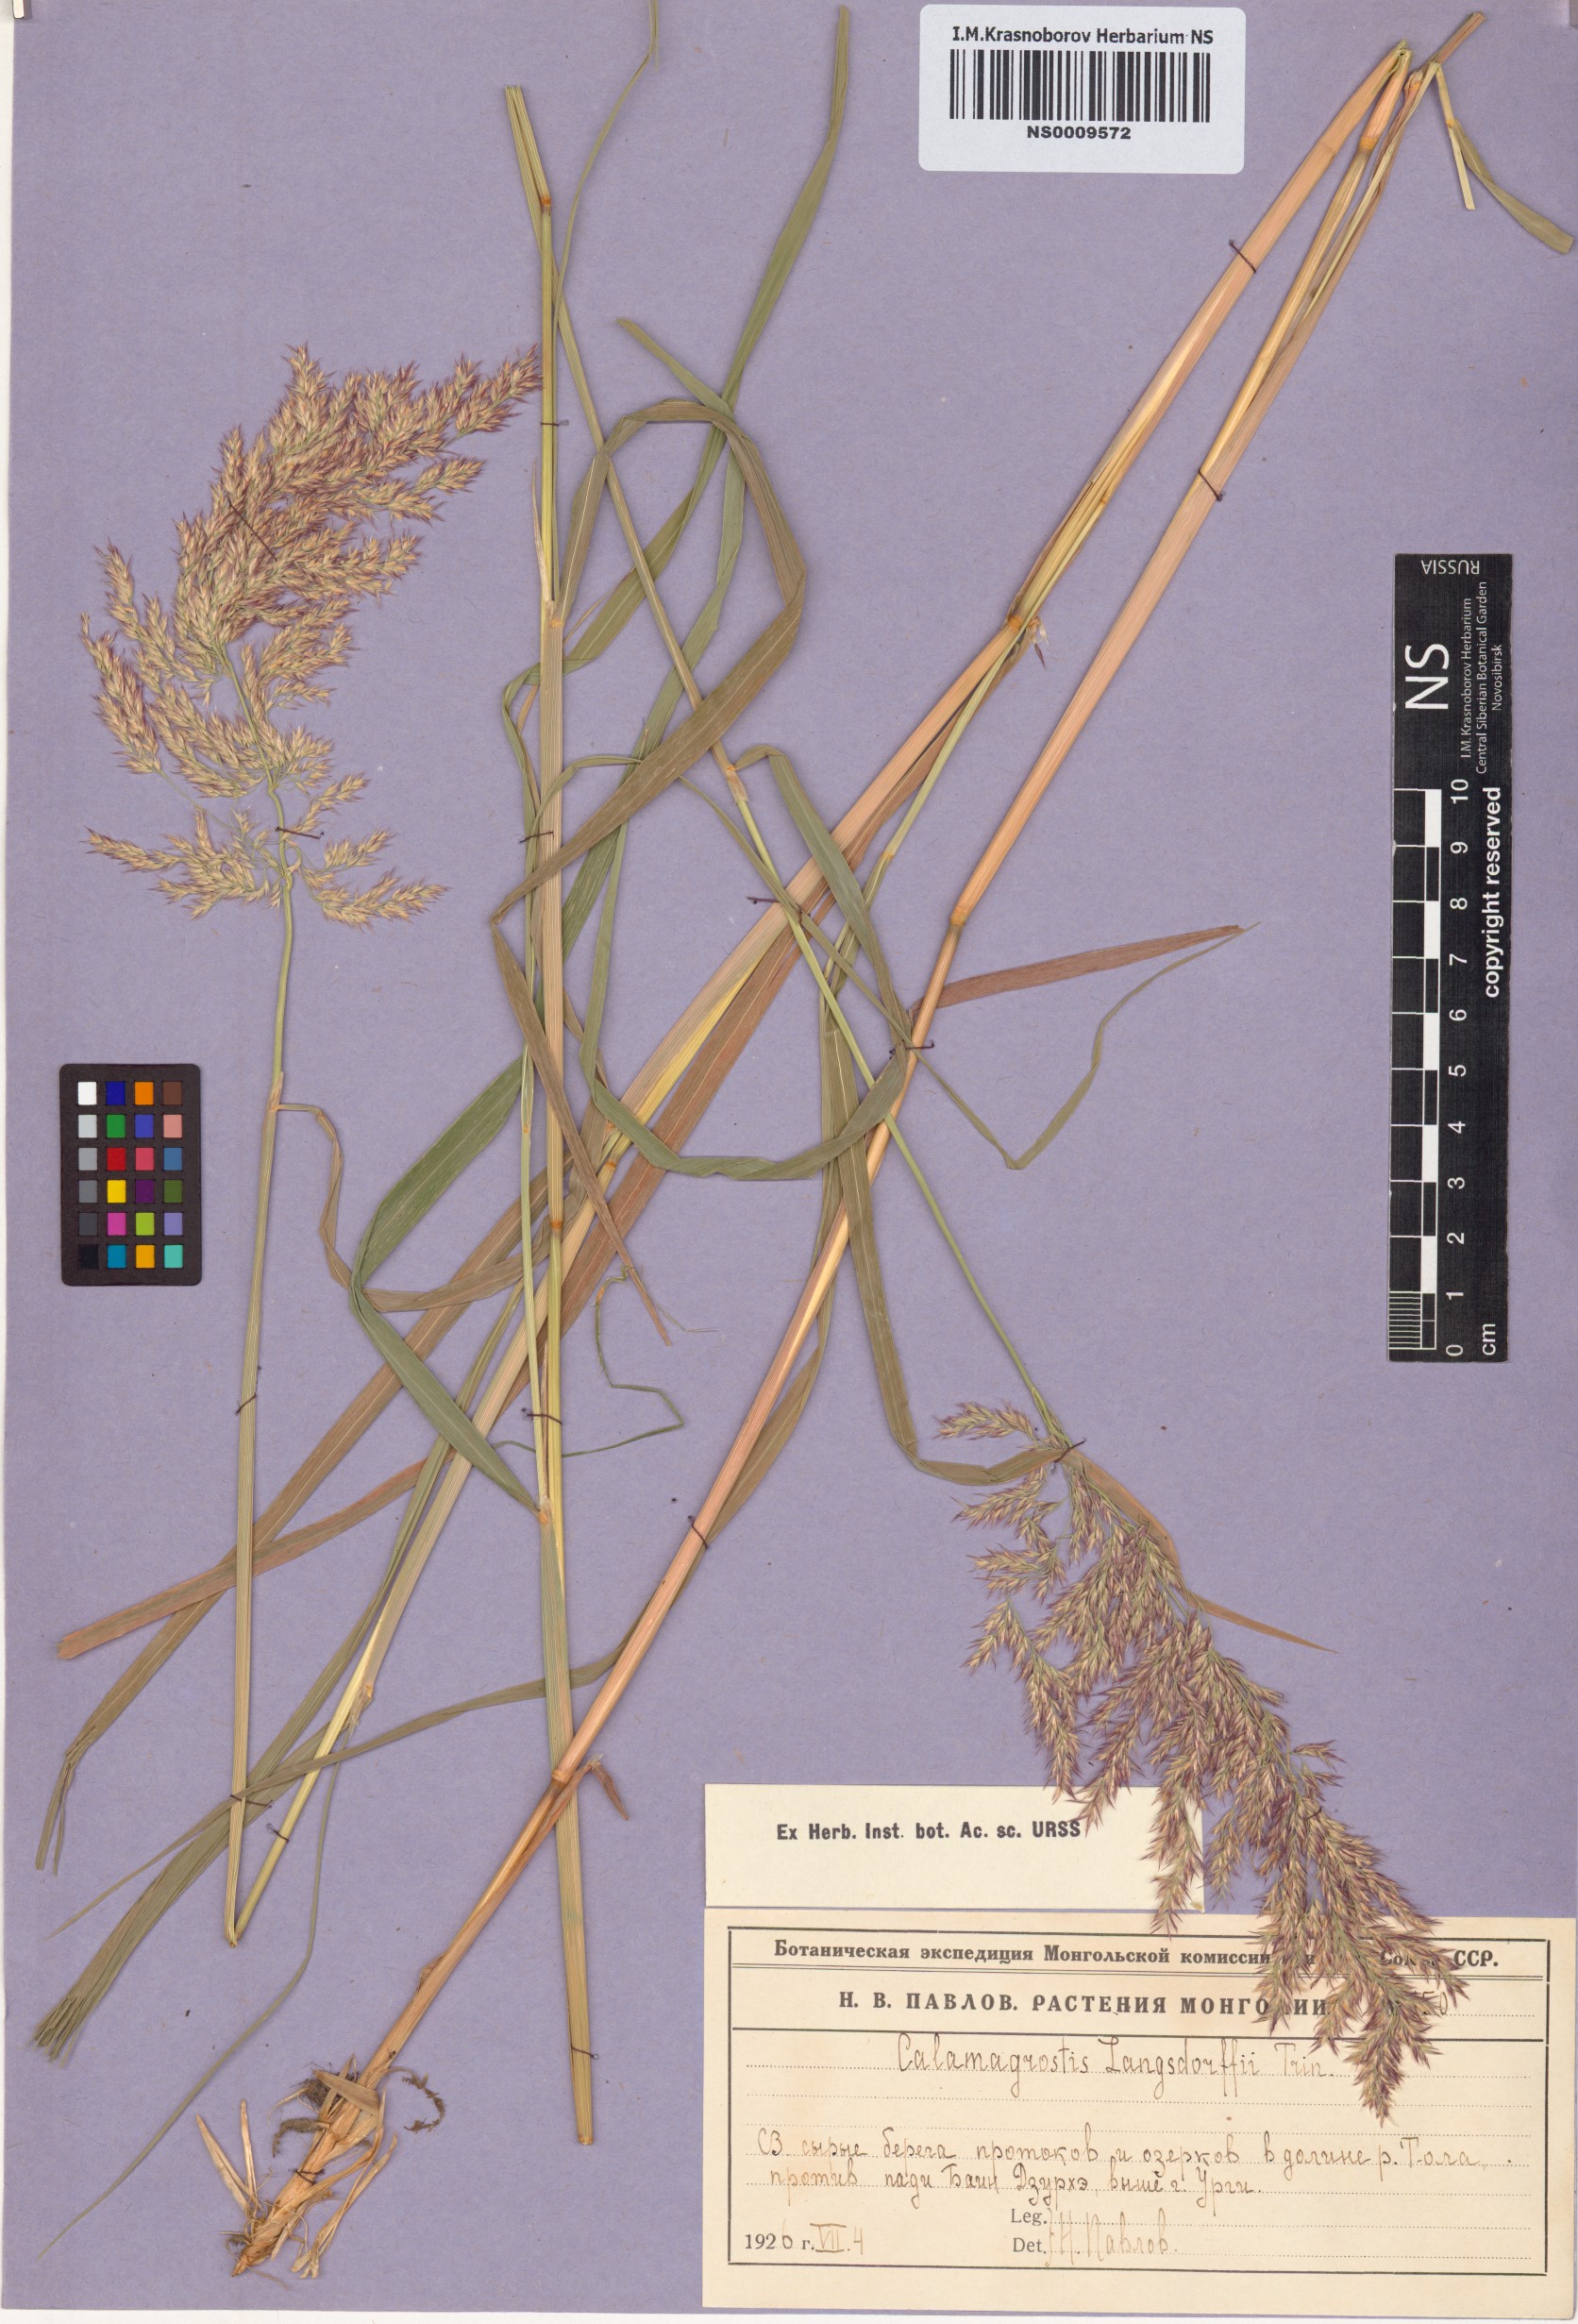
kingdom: Plantae
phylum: Tracheophyta
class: Liliopsida
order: Poales
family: Poaceae
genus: Calamagrostis
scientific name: Calamagrostis purpurea
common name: Scandinavian small-reed
